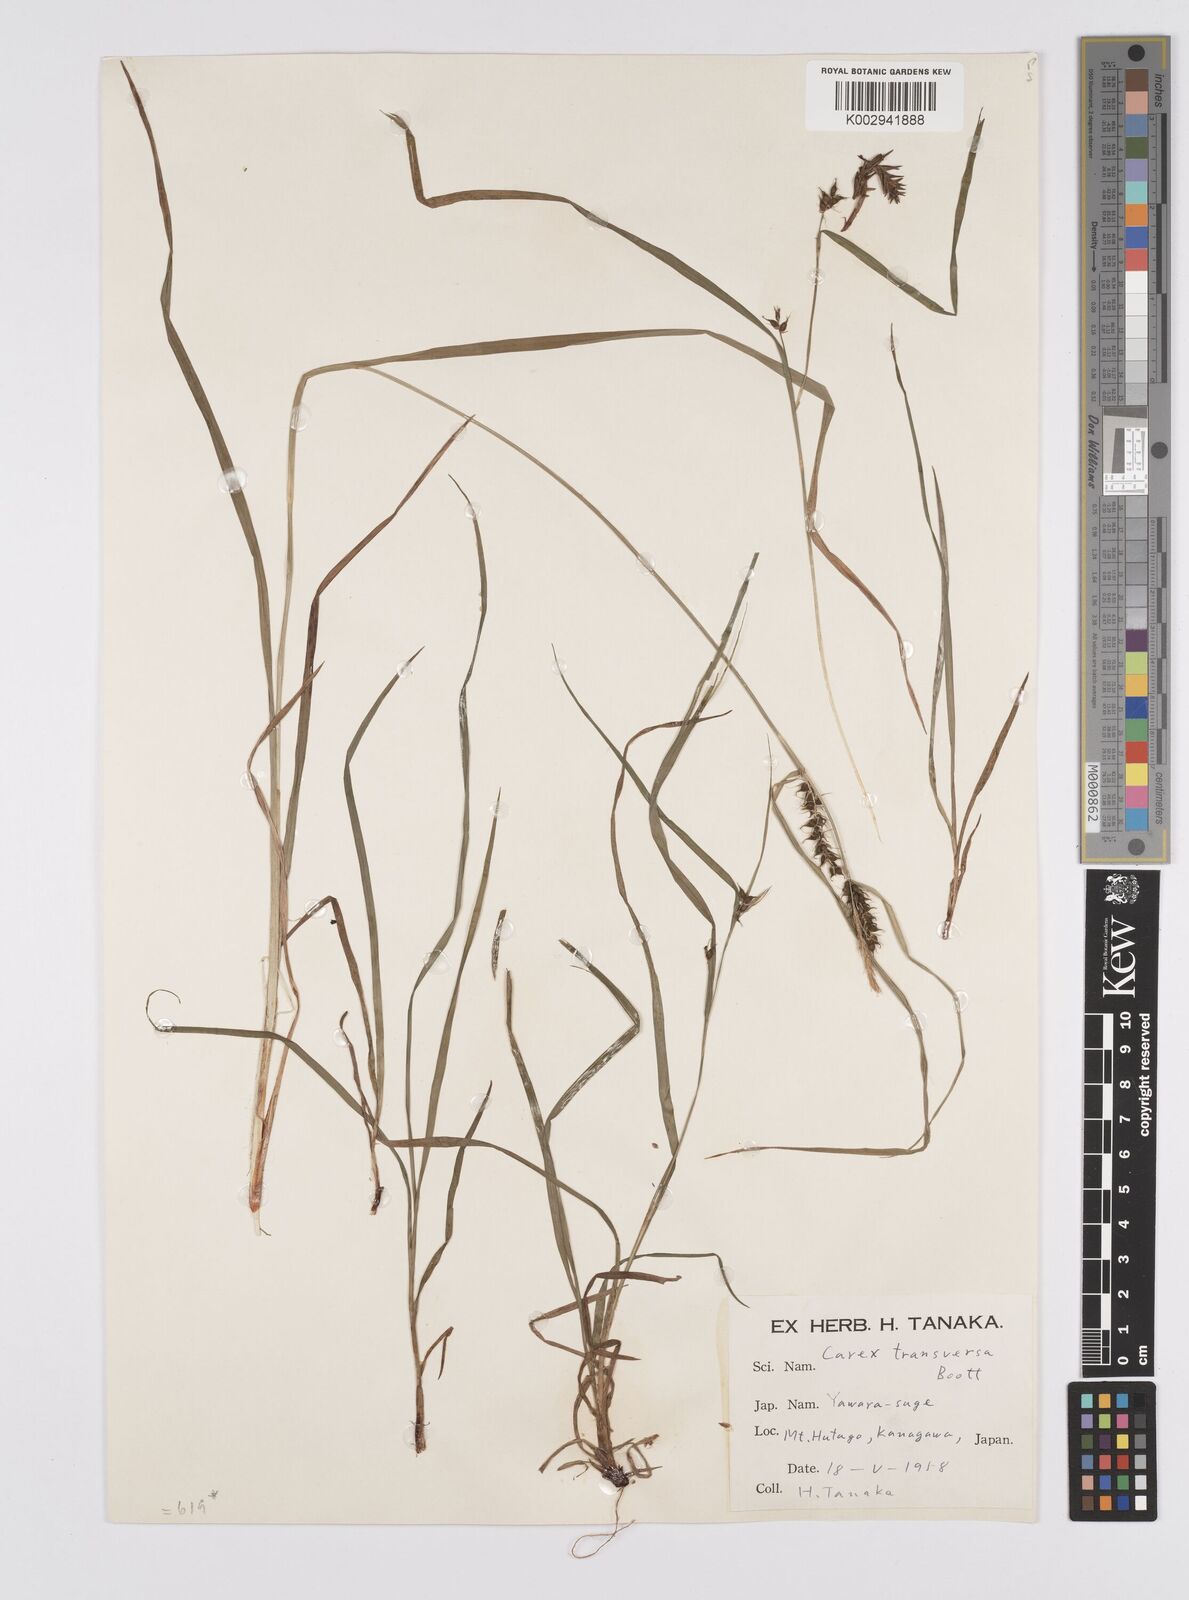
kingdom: Plantae
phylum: Tracheophyta
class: Liliopsida
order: Poales
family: Cyperaceae
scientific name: Cyperaceae
